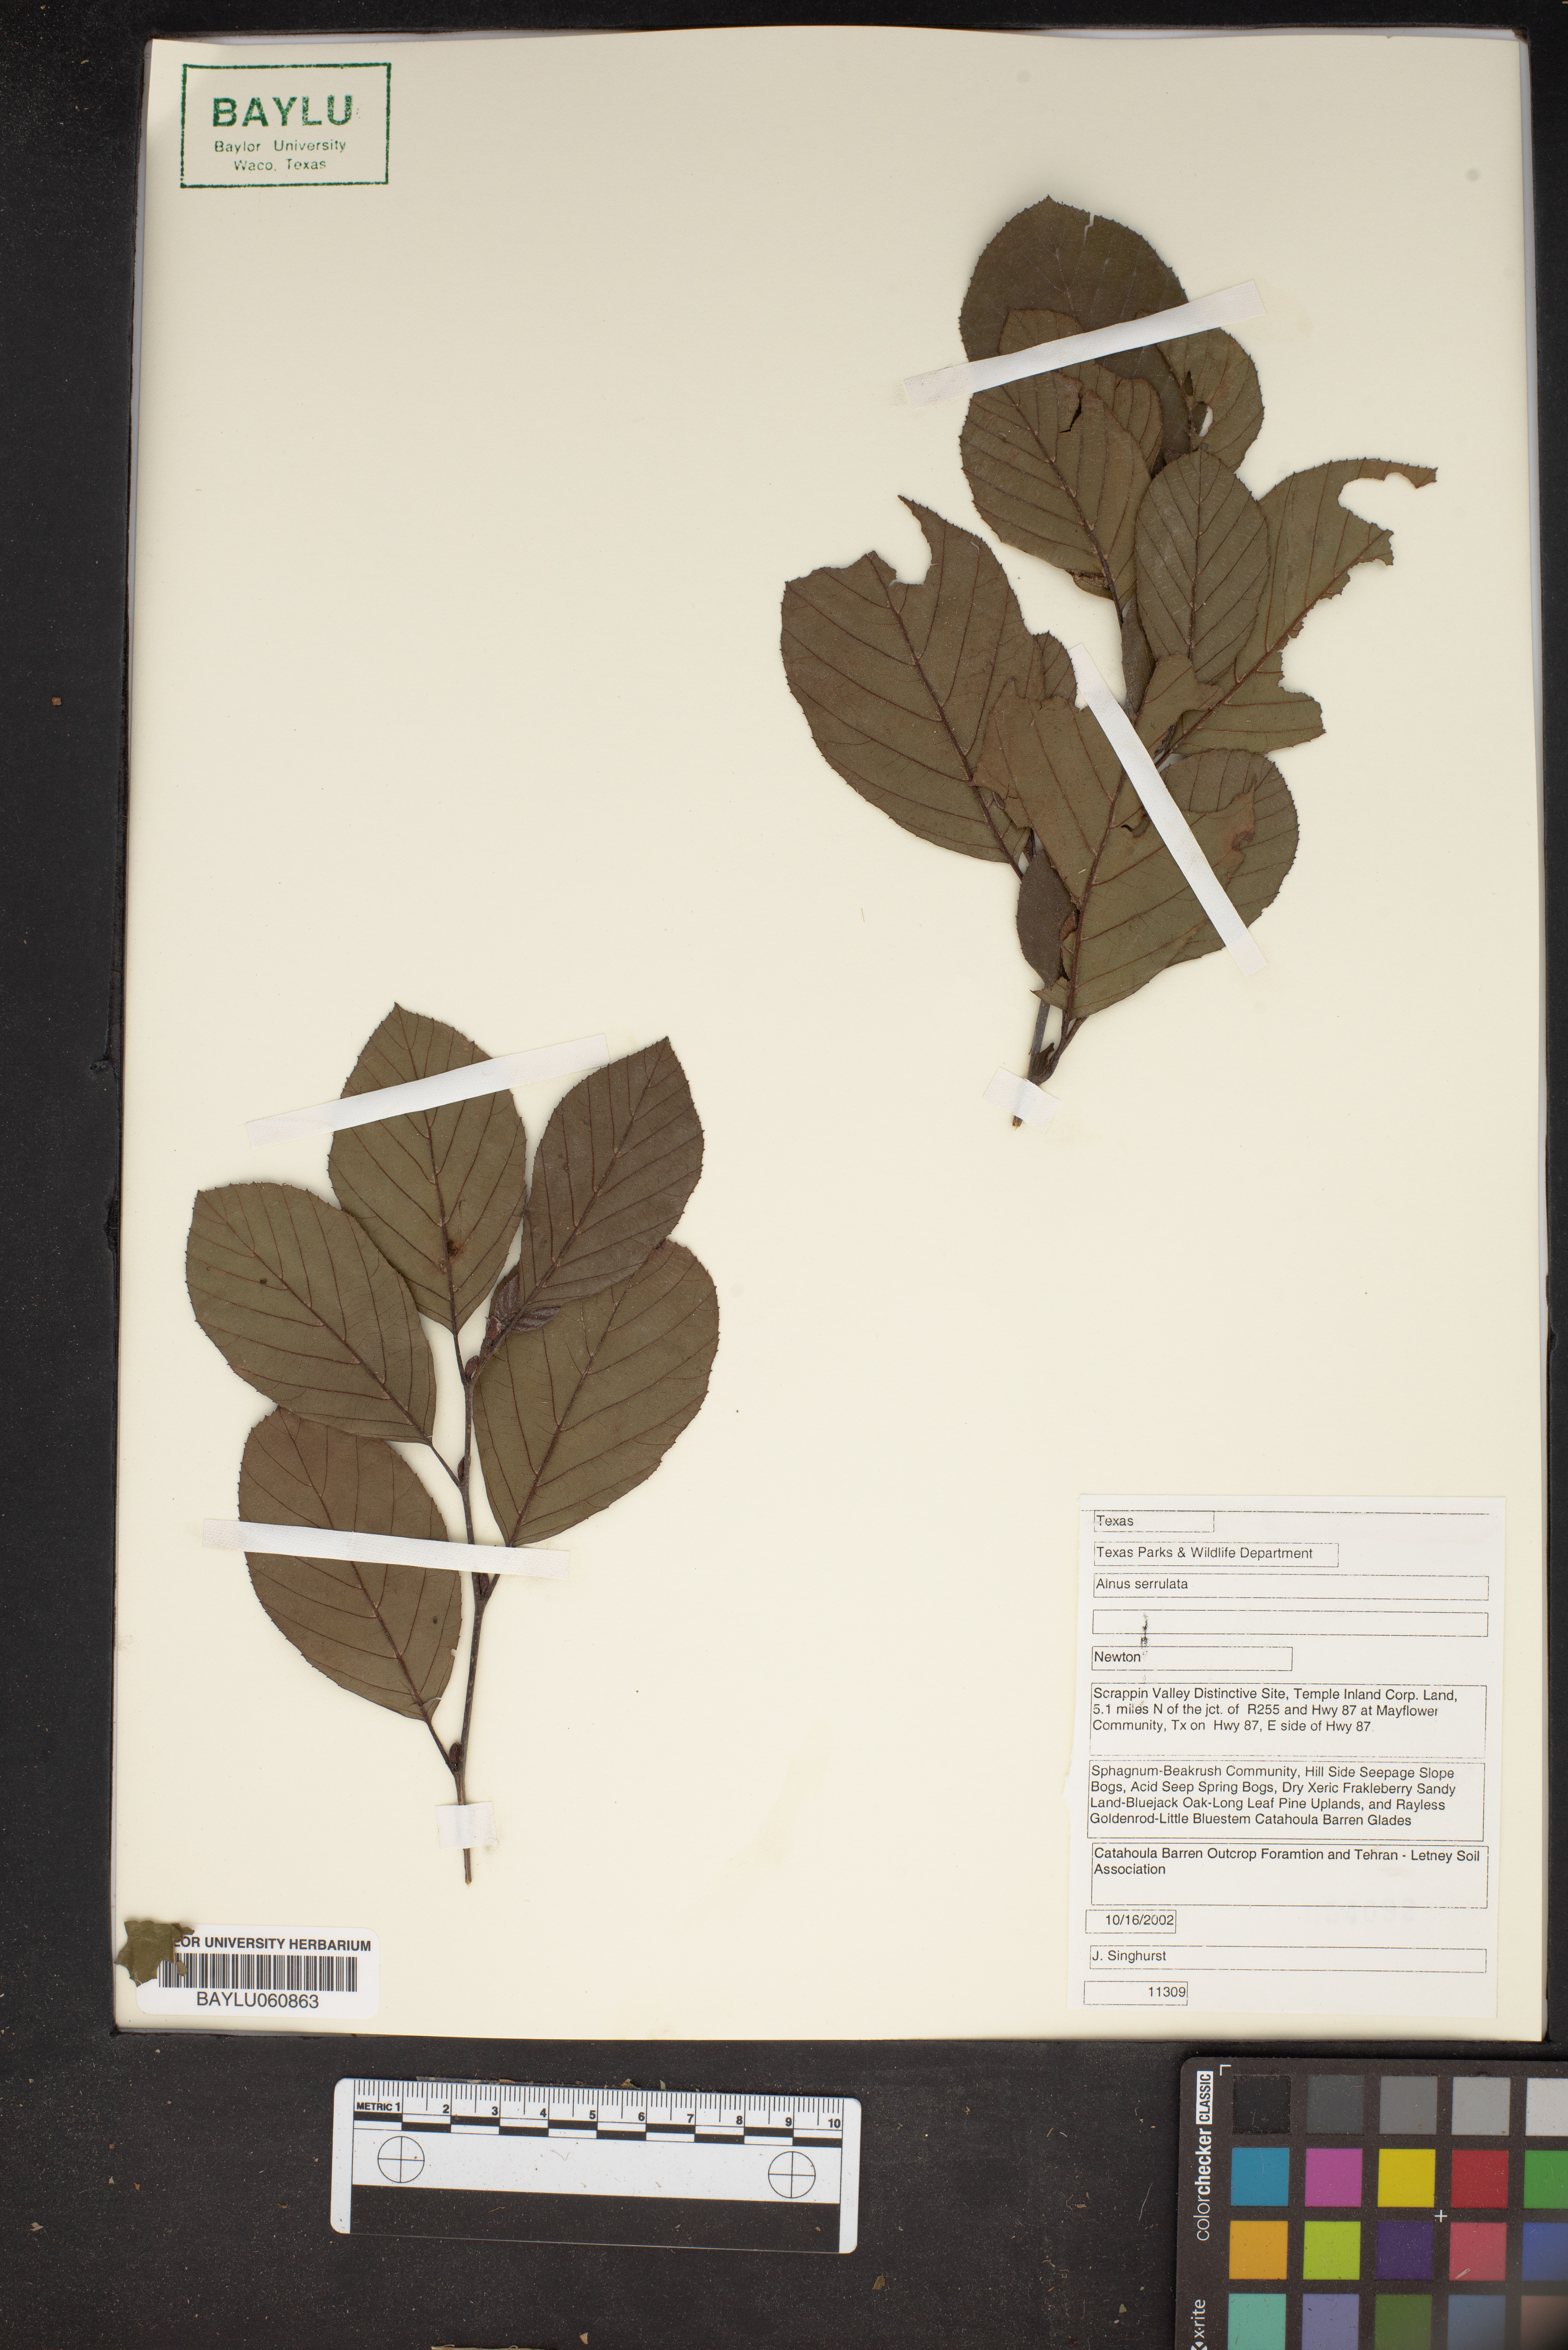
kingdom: Plantae
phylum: Tracheophyta
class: Magnoliopsida
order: Fagales
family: Betulaceae
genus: Alnus
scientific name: Alnus serrulata
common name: Hazel alder
